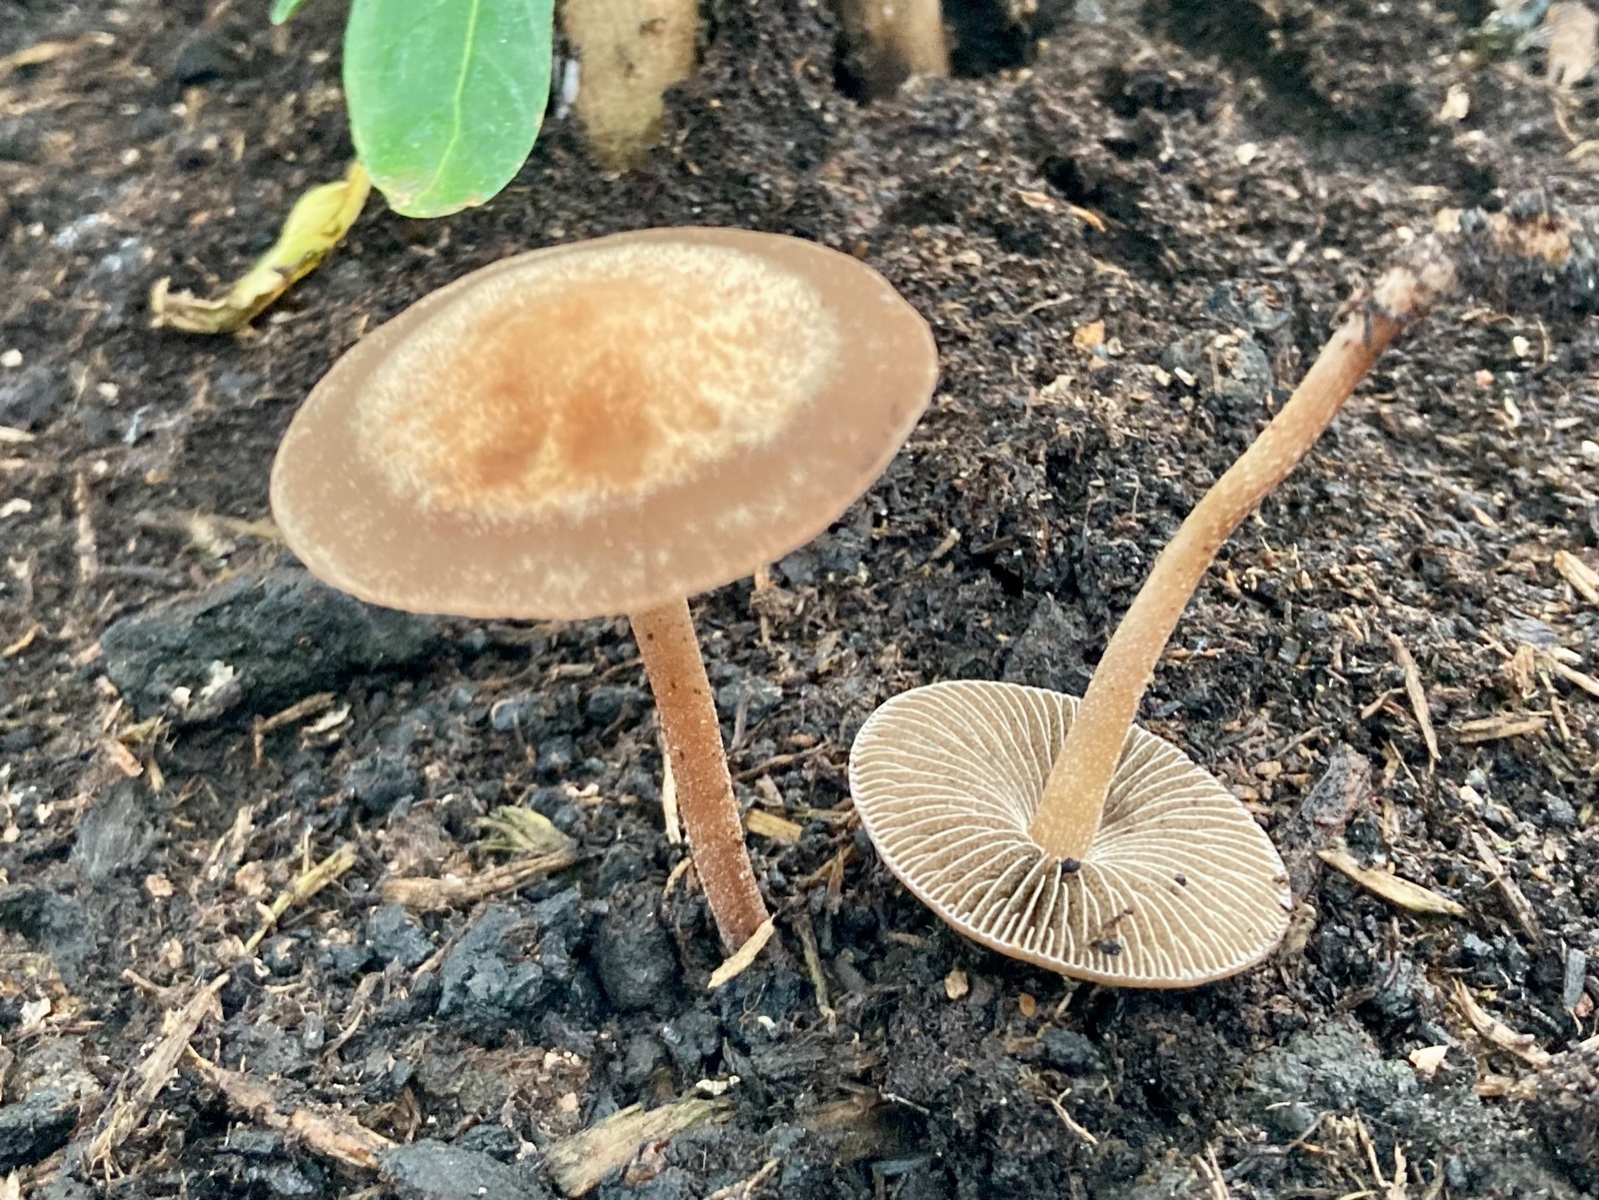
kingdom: Fungi
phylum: Basidiomycota
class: Agaricomycetes
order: Agaricales
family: Bolbitiaceae
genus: Panaeolus
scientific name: Panaeolus
